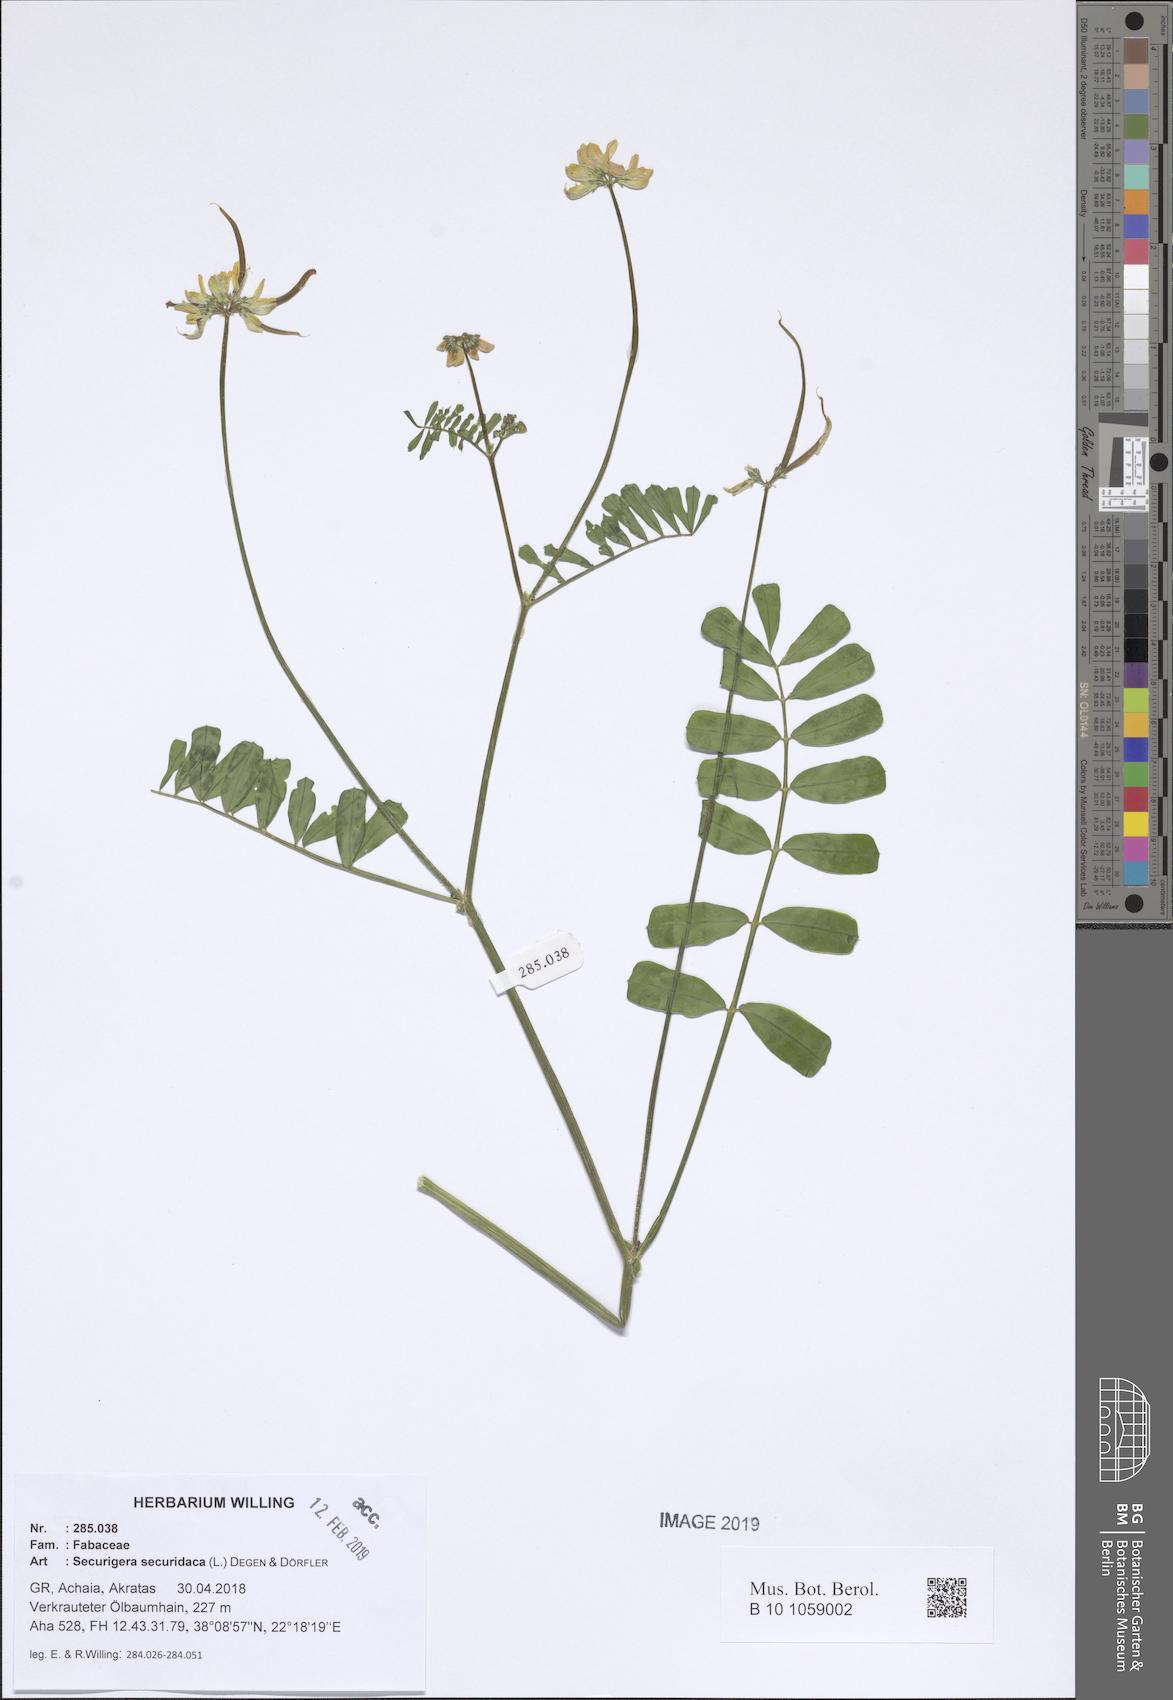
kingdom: Plantae
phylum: Tracheophyta
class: Magnoliopsida
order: Fabales
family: Fabaceae
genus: Coronilla
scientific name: Coronilla securidaca
